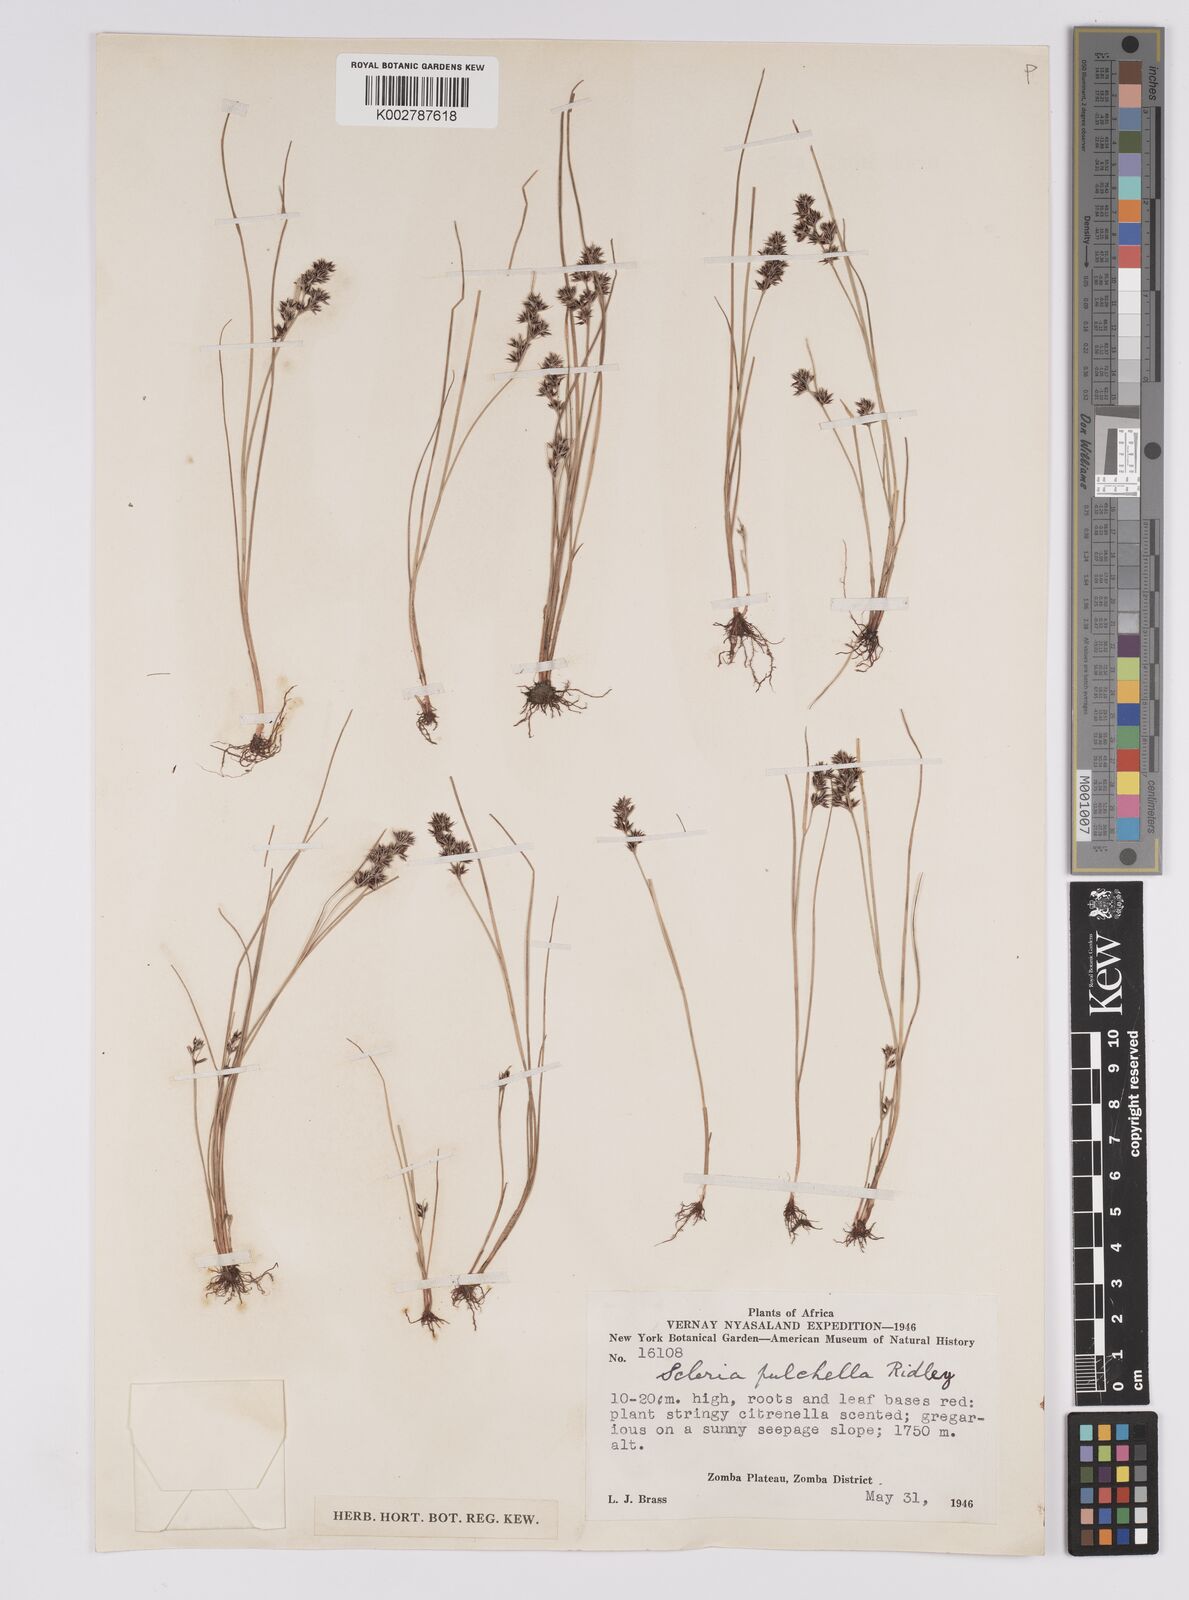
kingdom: Plantae
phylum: Tracheophyta
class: Liliopsida
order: Poales
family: Cyperaceae
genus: Scleria
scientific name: Scleria pulchella
